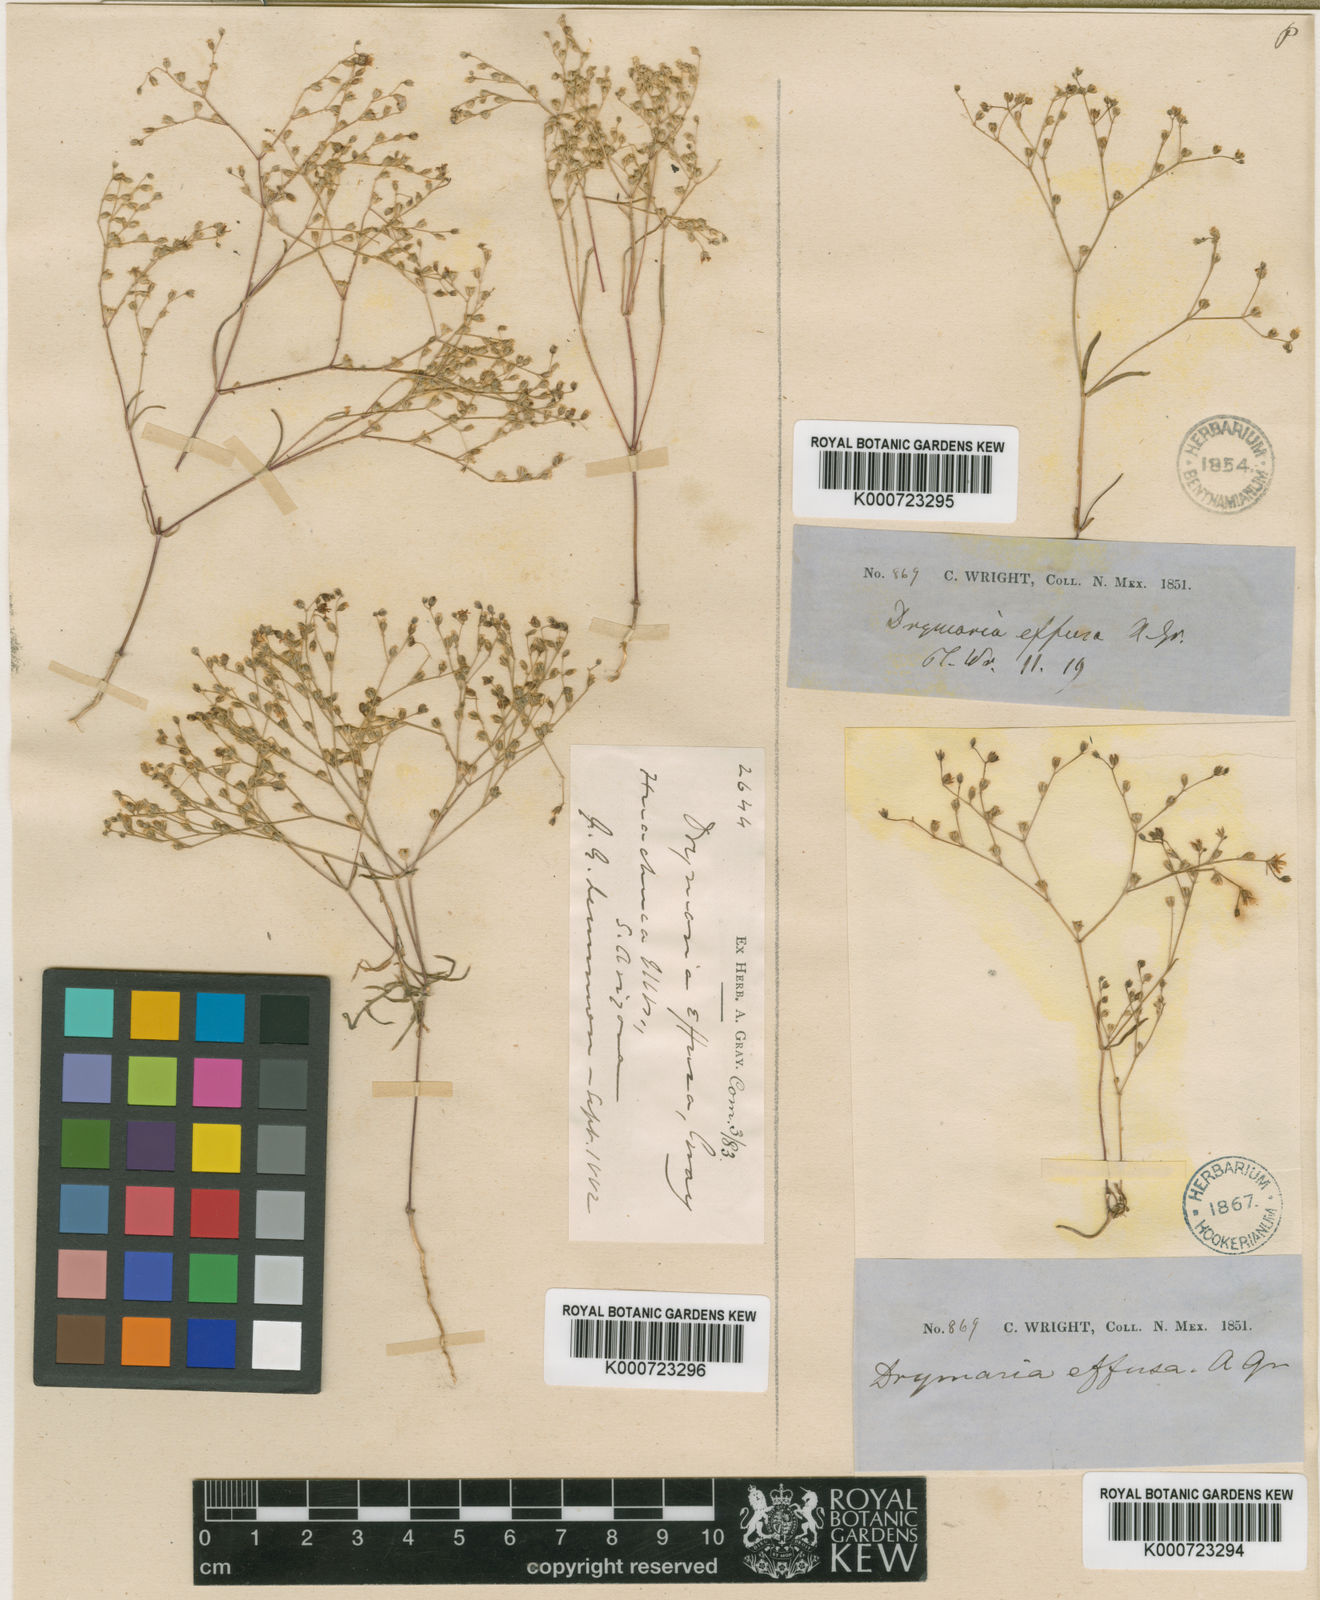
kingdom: Plantae
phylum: Tracheophyta
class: Magnoliopsida
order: Caryophyllales
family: Caryophyllaceae
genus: Drymaria
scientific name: Drymaria effusa
